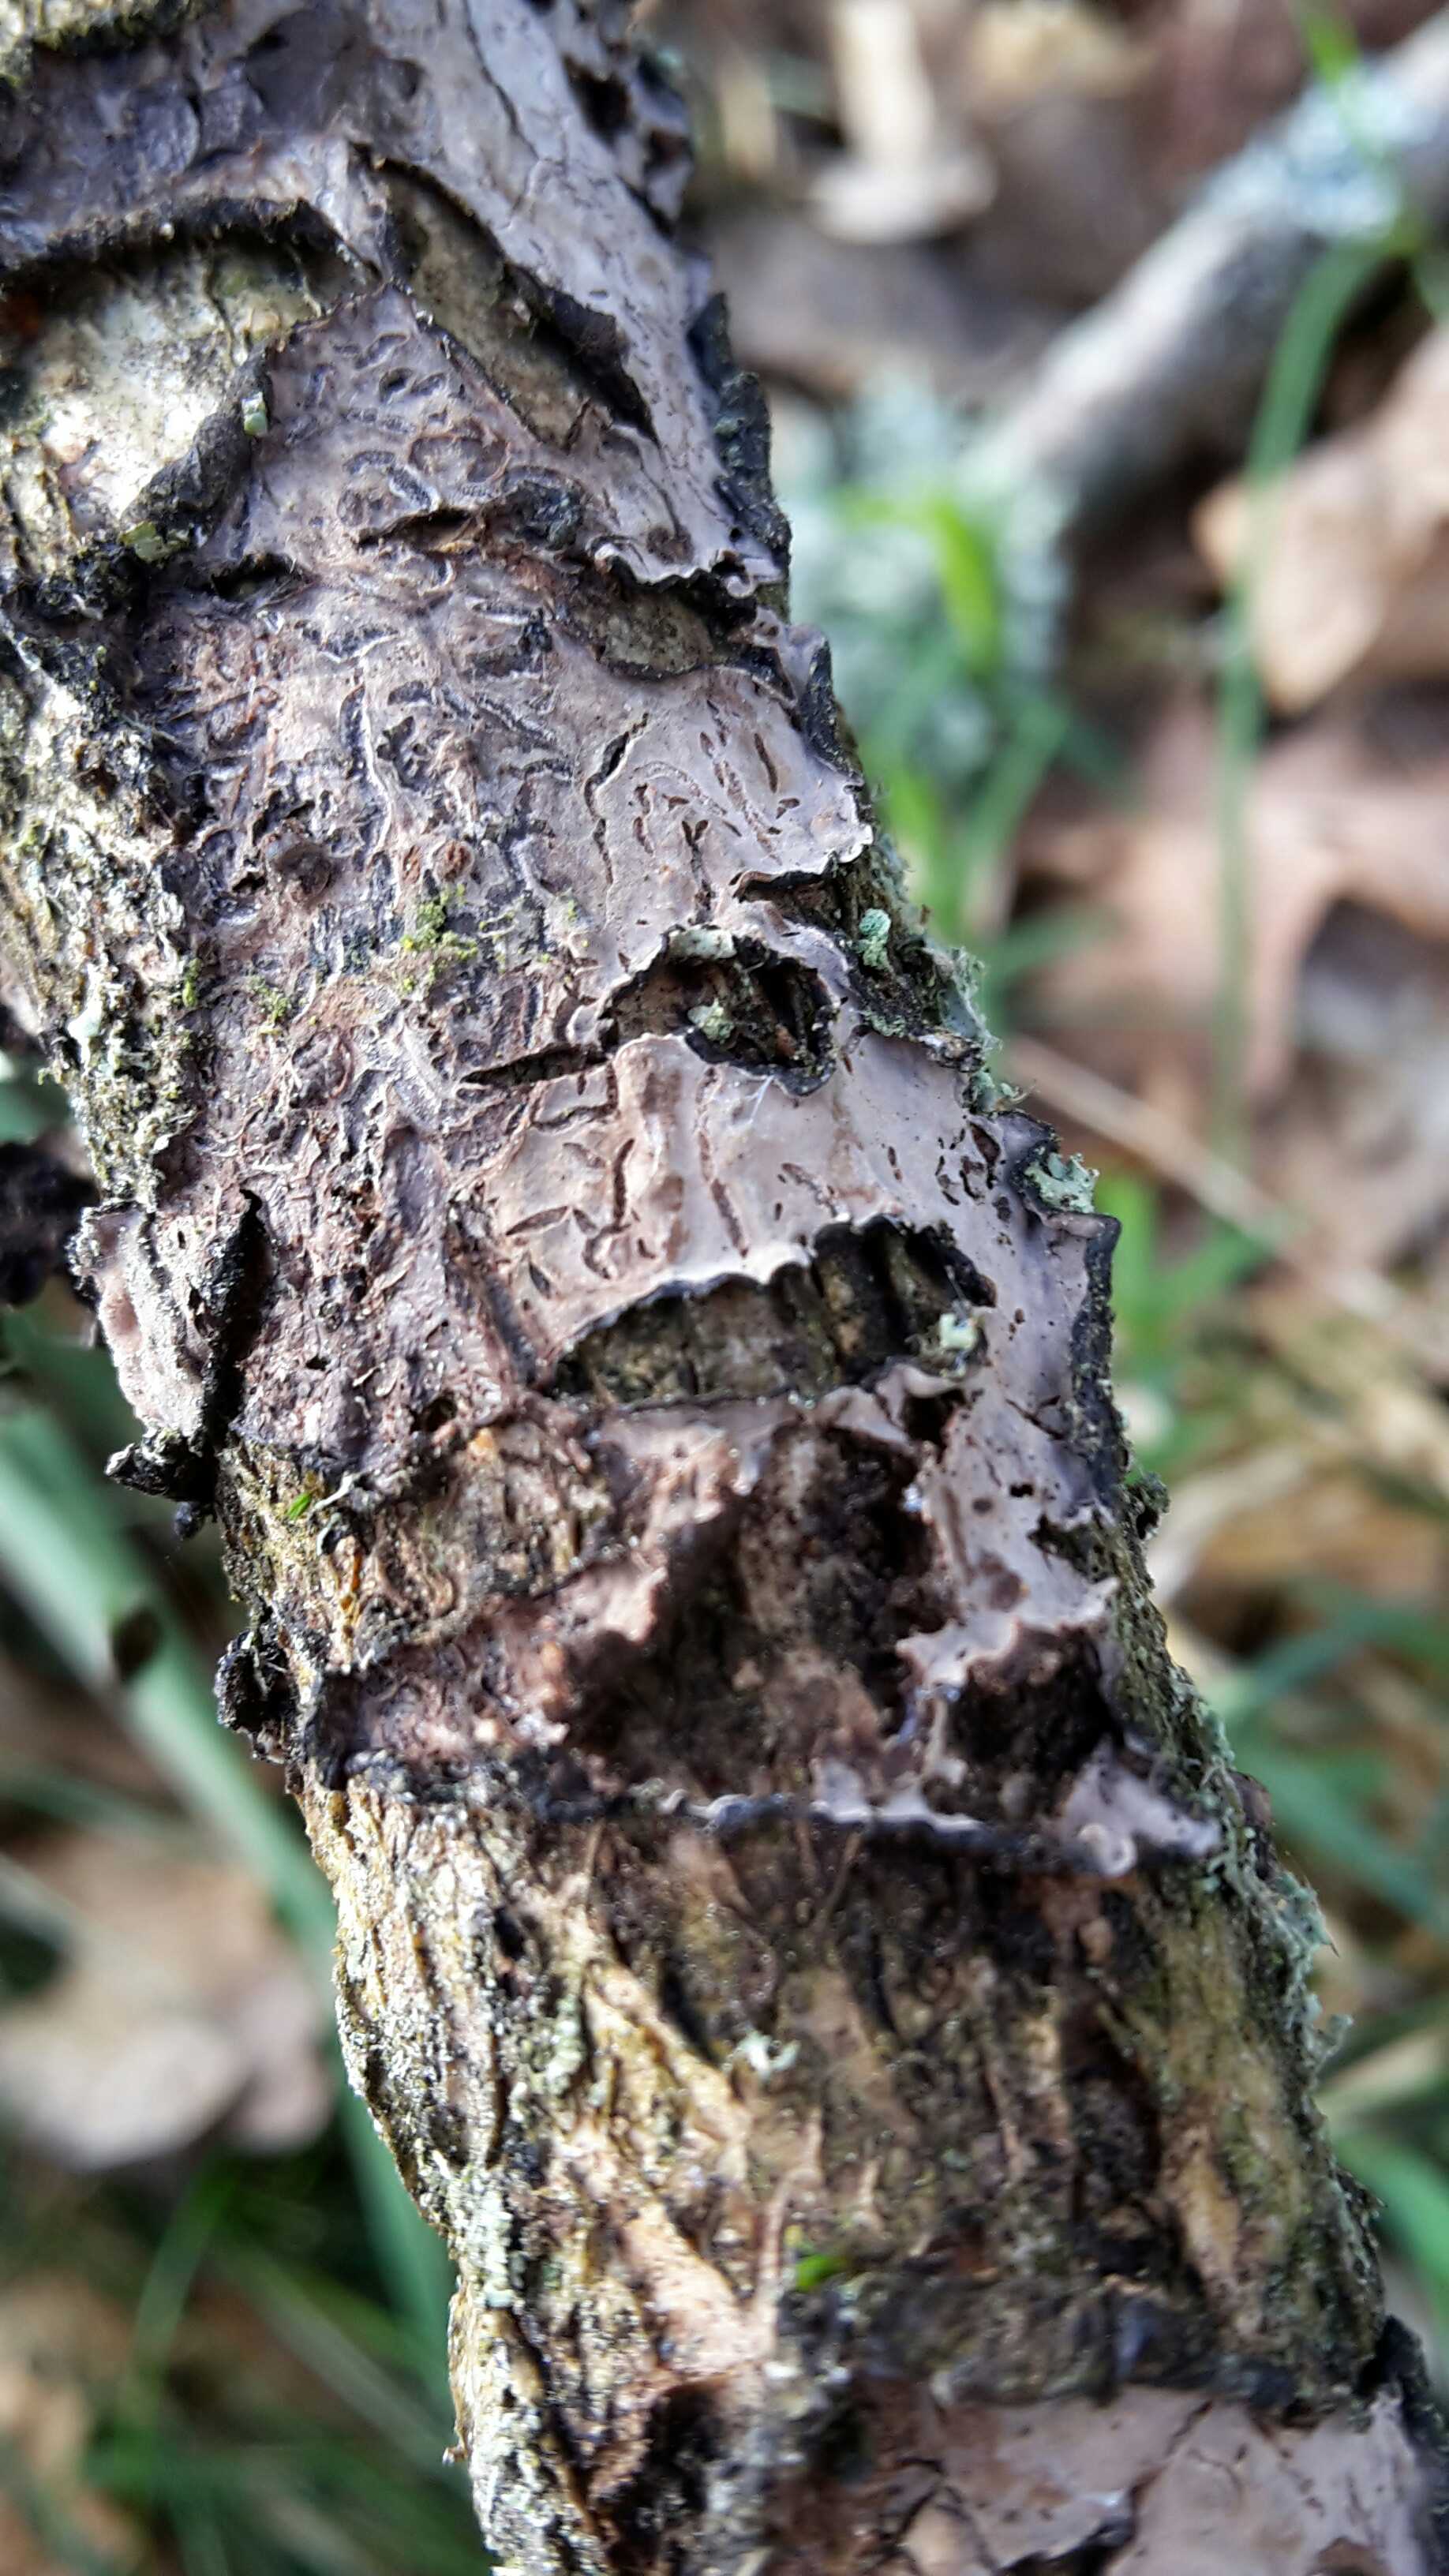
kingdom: Fungi
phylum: Basidiomycota
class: Agaricomycetes
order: Russulales
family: Peniophoraceae
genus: Peniophora
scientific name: Peniophora quercina
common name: ege-voksskind
